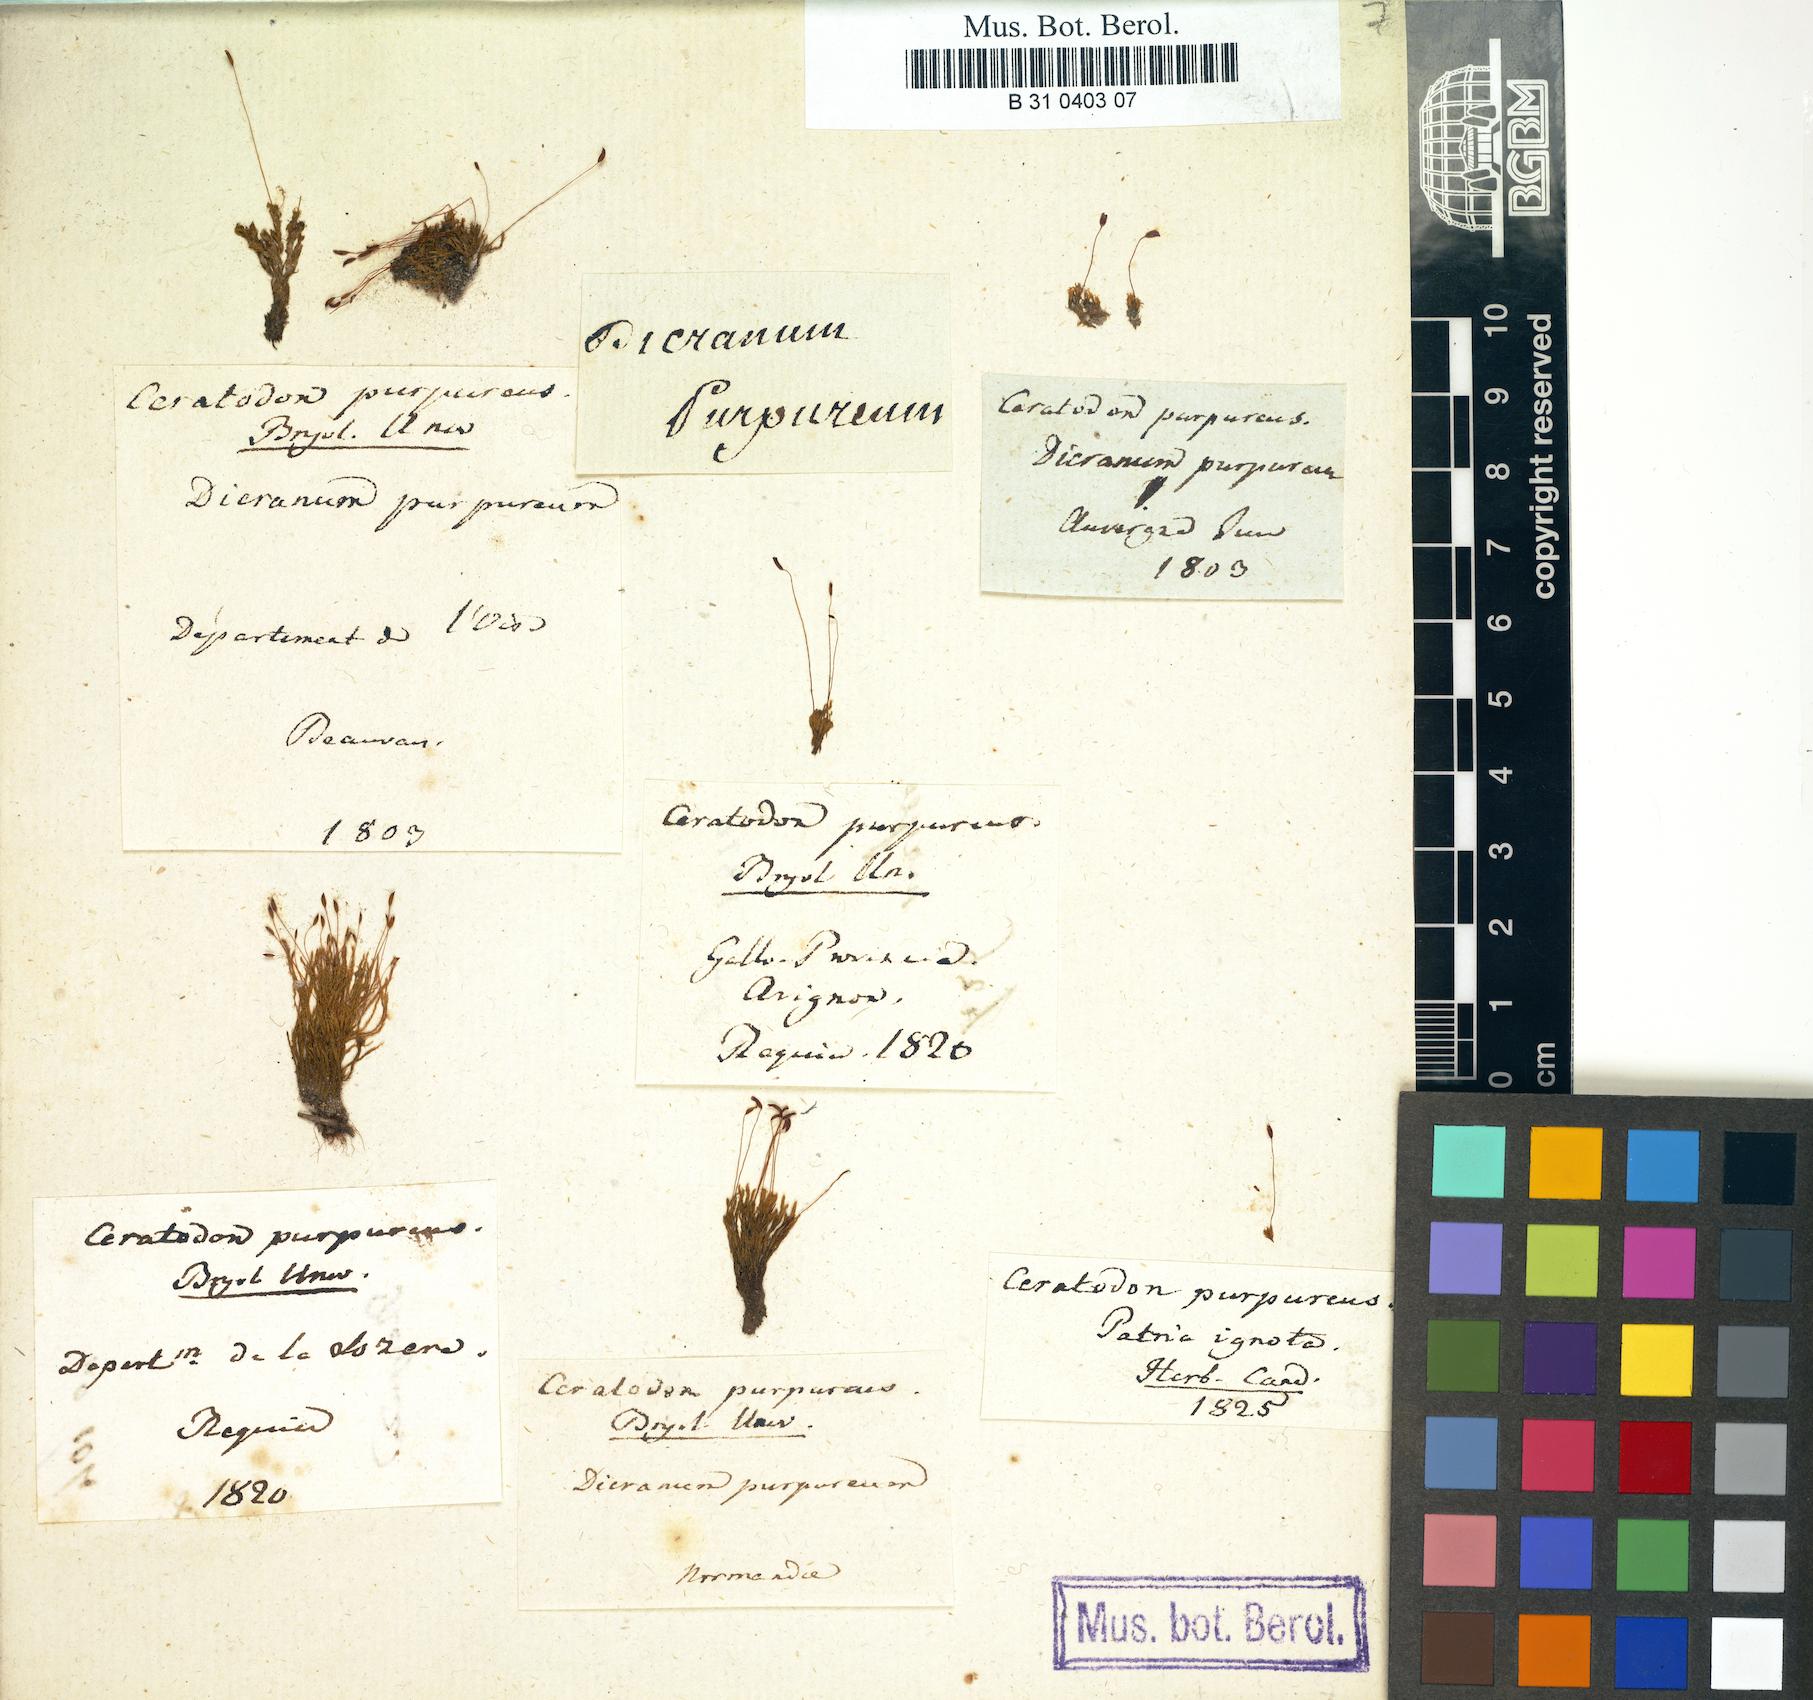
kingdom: Plantae
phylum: Bryophyta
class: Bryopsida
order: Dicranales
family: Ditrichaceae
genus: Ceratodon
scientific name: Ceratodon purpureus
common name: Redshank
